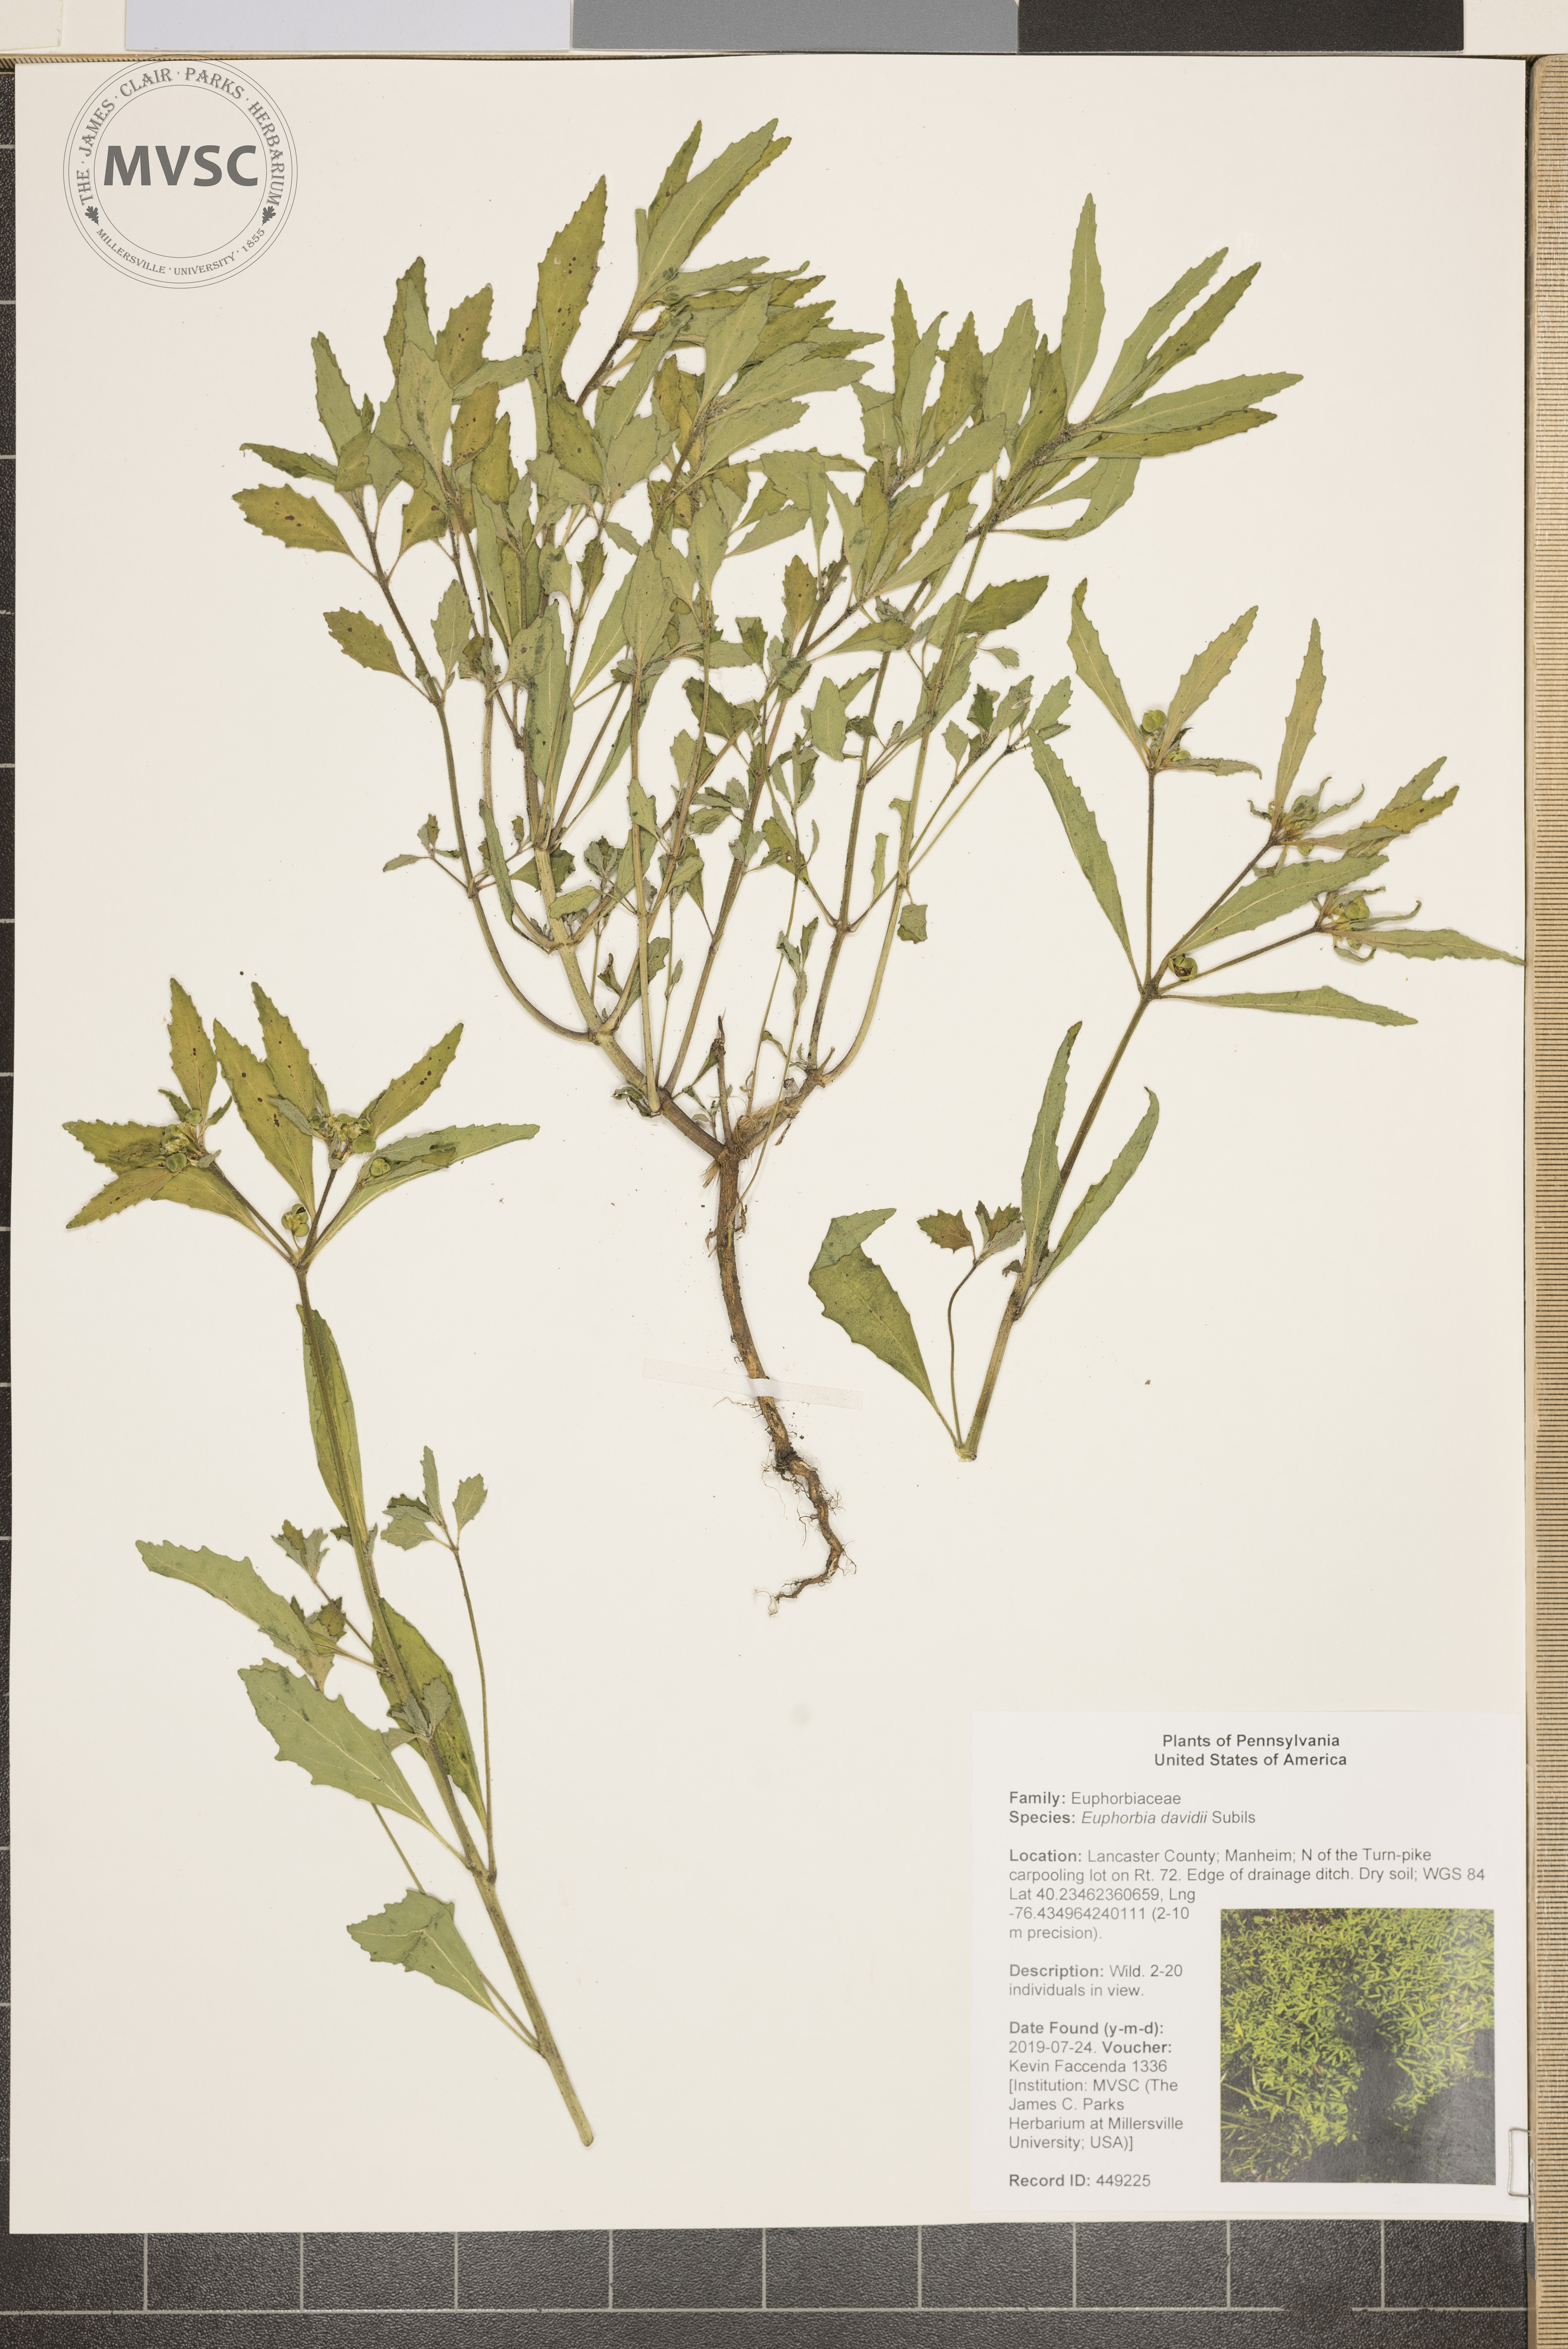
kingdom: Plantae
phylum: Tracheophyta
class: Magnoliopsida
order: Malpighiales
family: Euphorbiaceae
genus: Euphorbia
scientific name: Euphorbia davidii
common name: David's spurge
